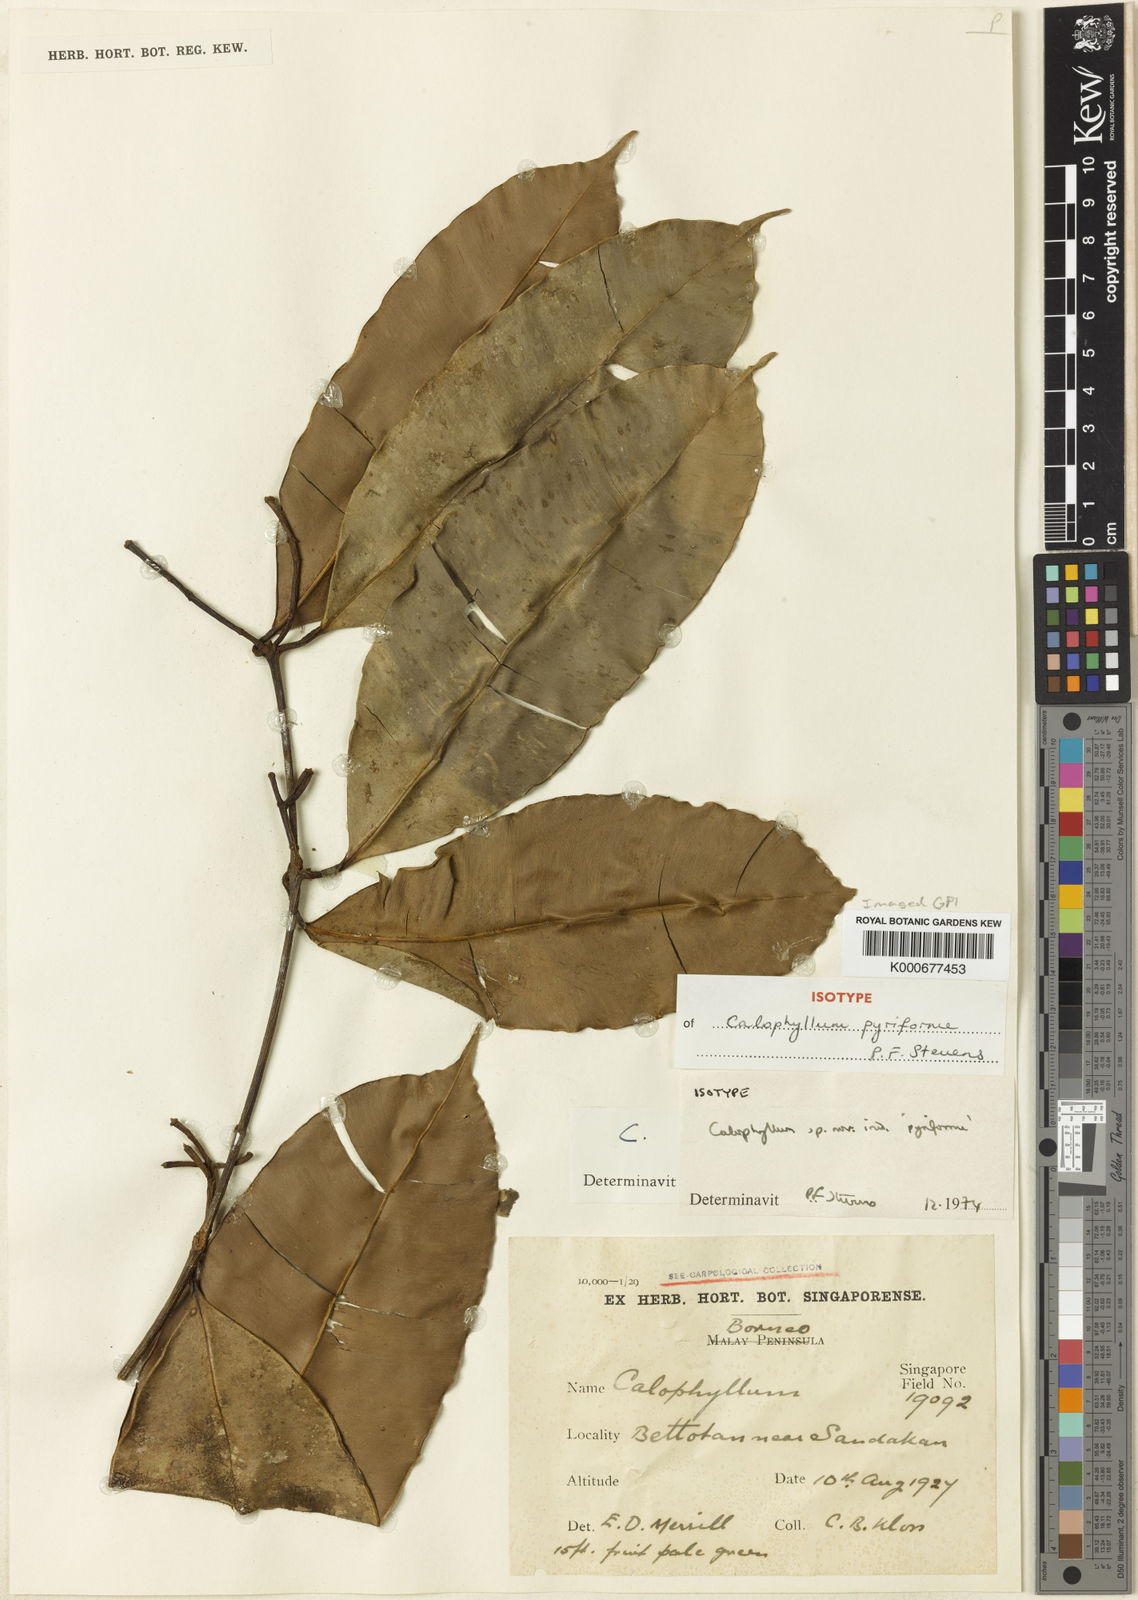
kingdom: Plantae
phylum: Tracheophyta
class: Magnoliopsida
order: Malpighiales
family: Calophyllaceae
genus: Calophyllum
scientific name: Calophyllum pyriforme
